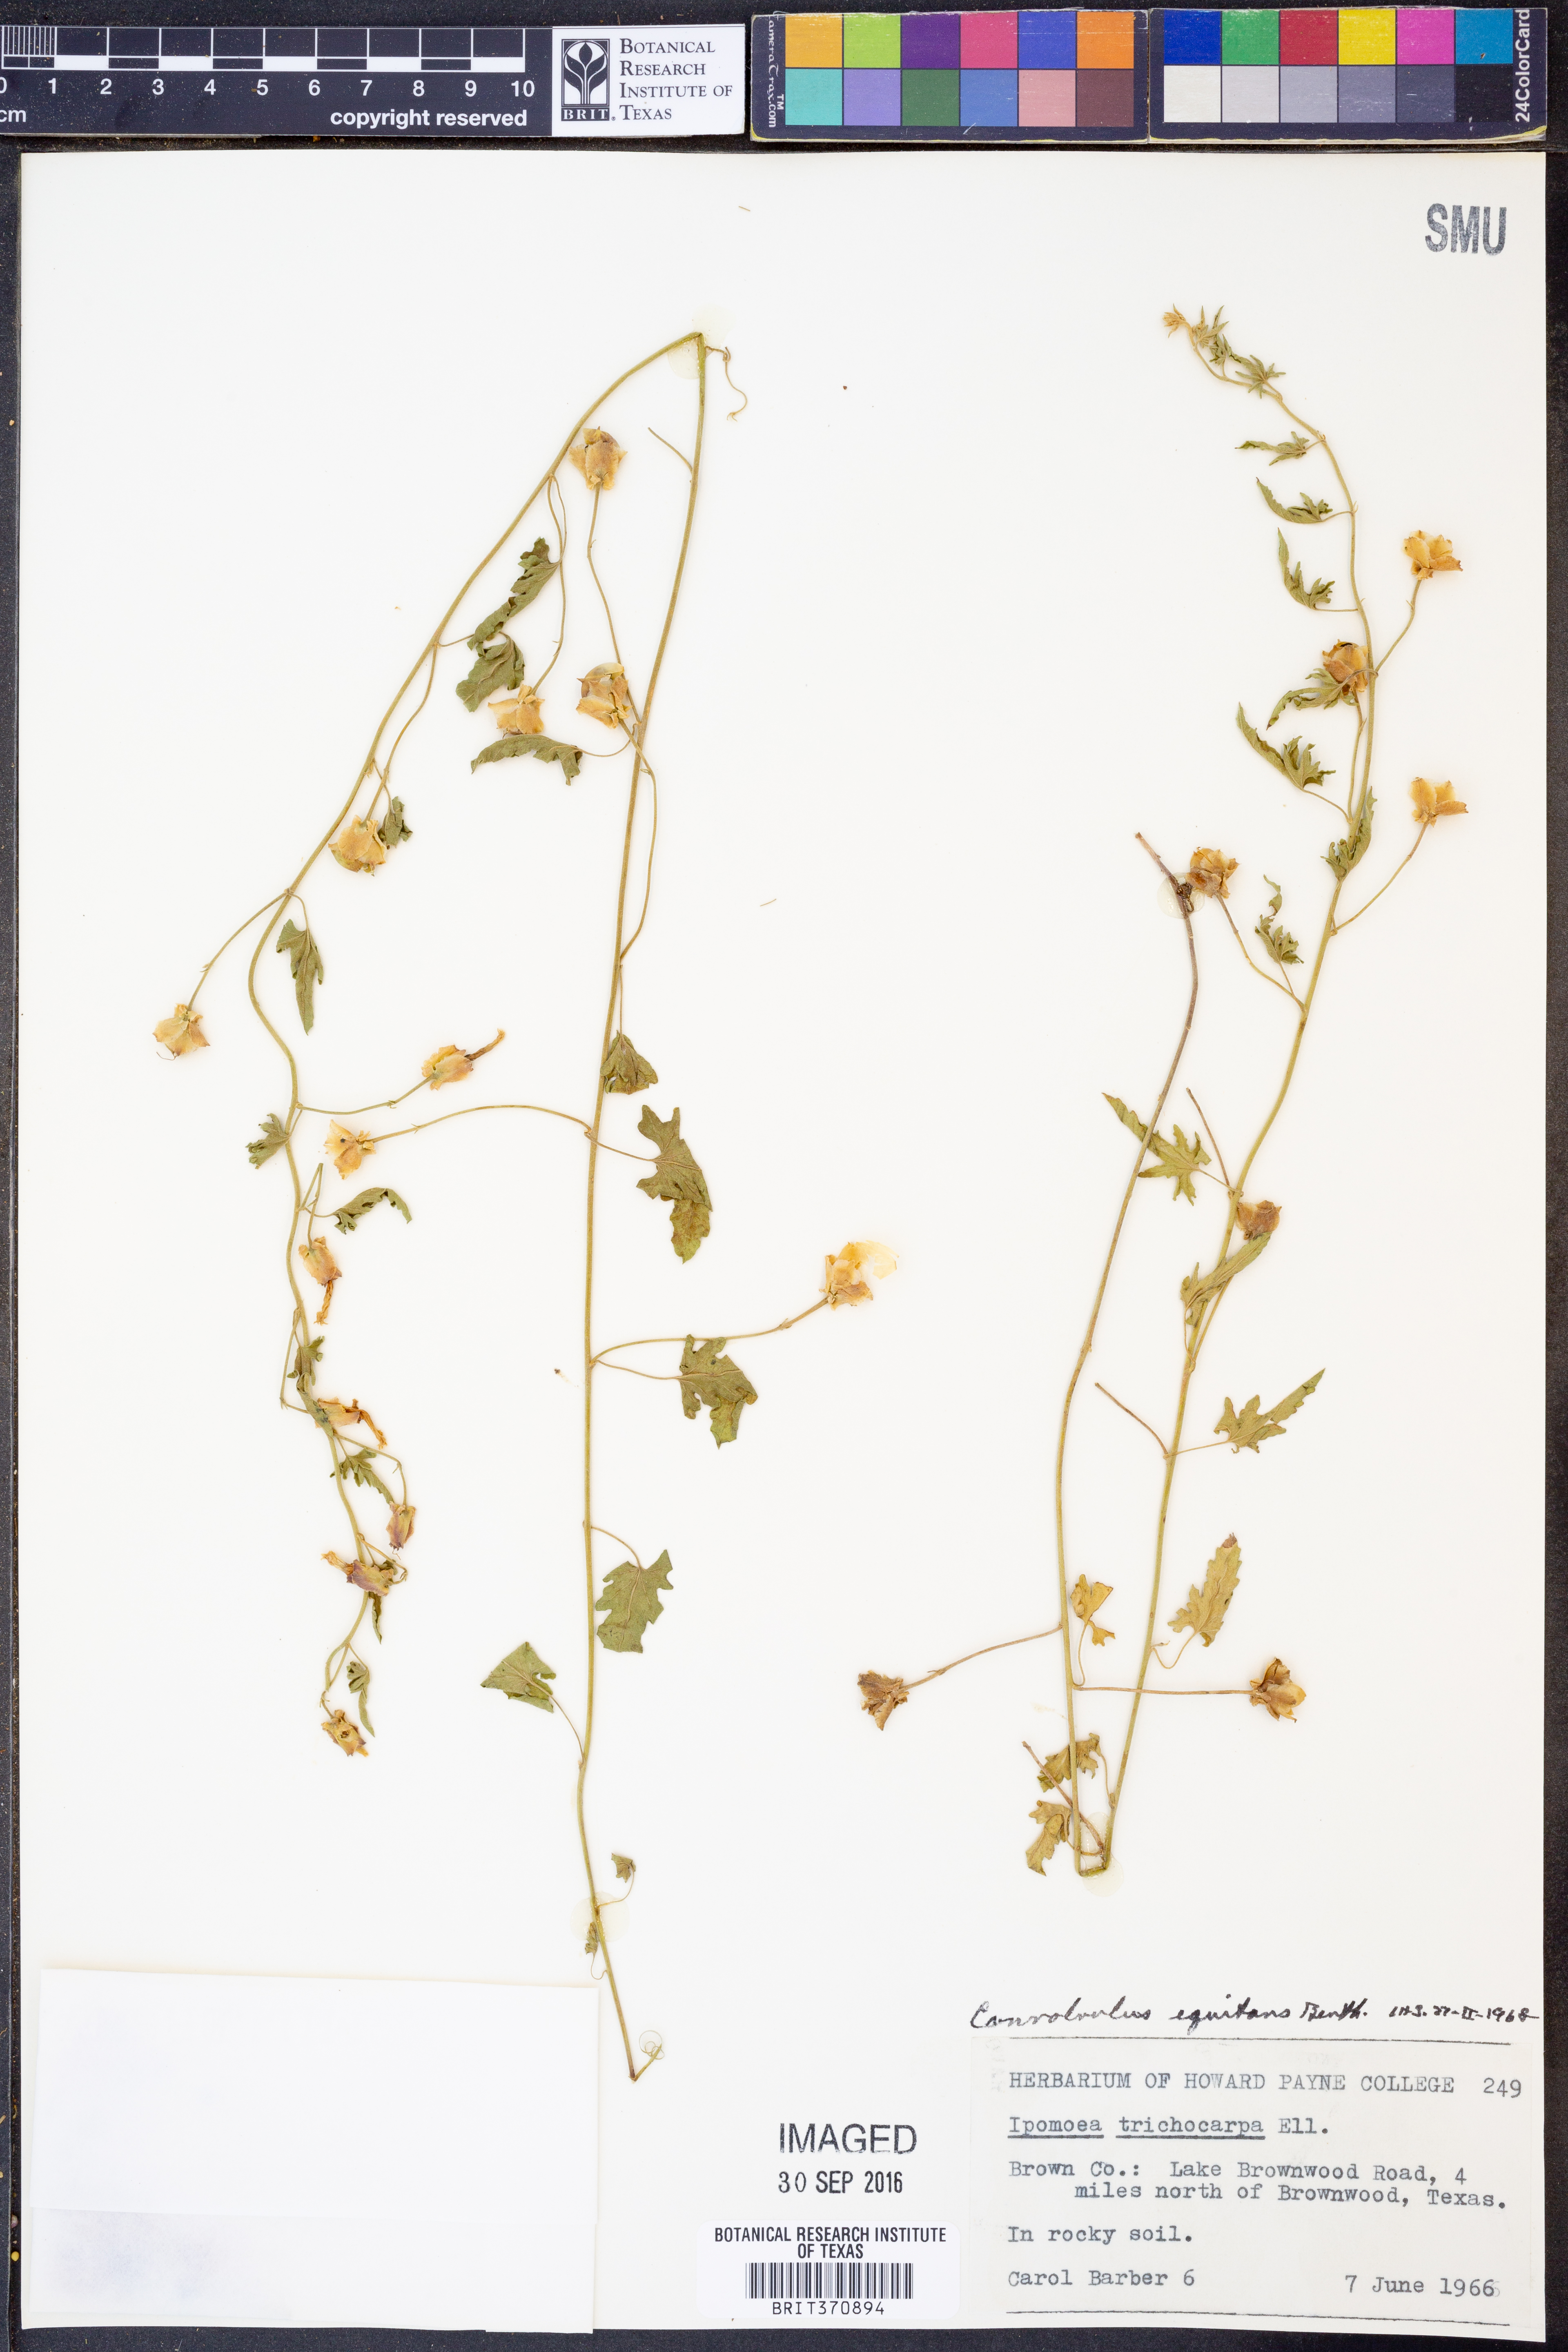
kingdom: Plantae
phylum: Tracheophyta
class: Magnoliopsida
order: Solanales
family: Convolvulaceae
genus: Convolvulus
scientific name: Convolvulus equitans
